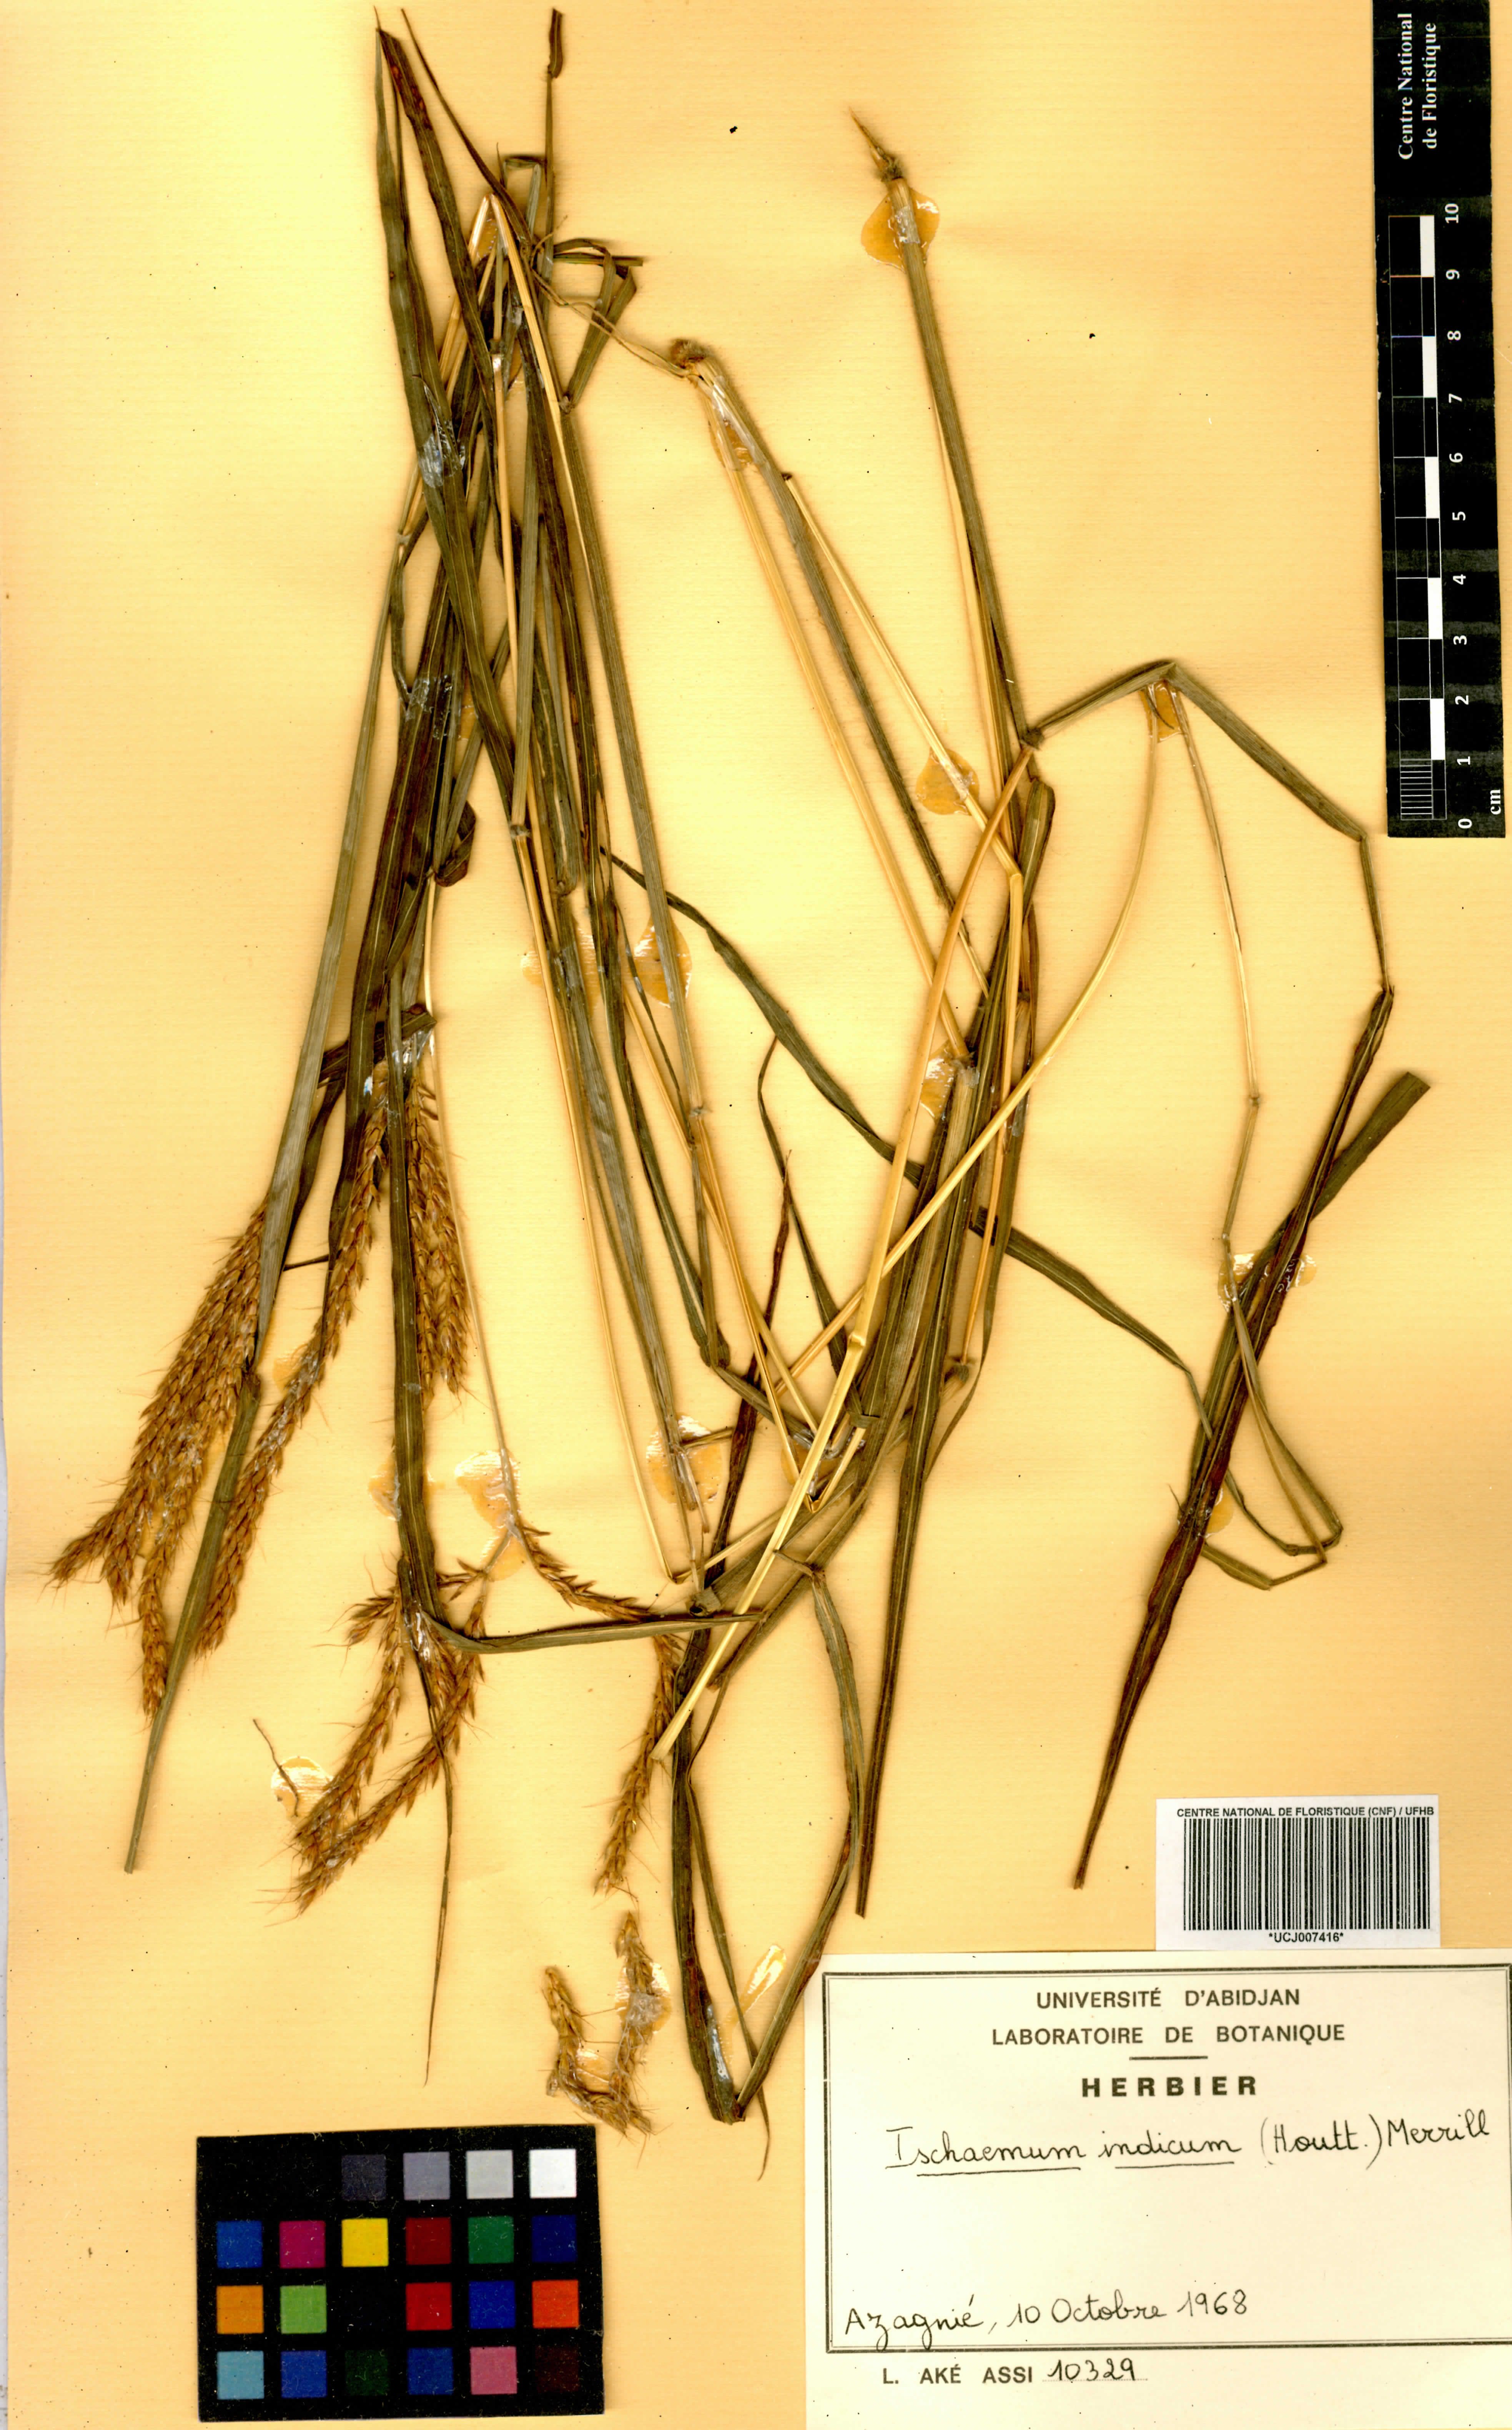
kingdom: Plantae
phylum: Tracheophyta
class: Liliopsida
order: Poales
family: Poaceae
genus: Polytrias
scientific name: Polytrias indica
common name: Indian murainagrass
